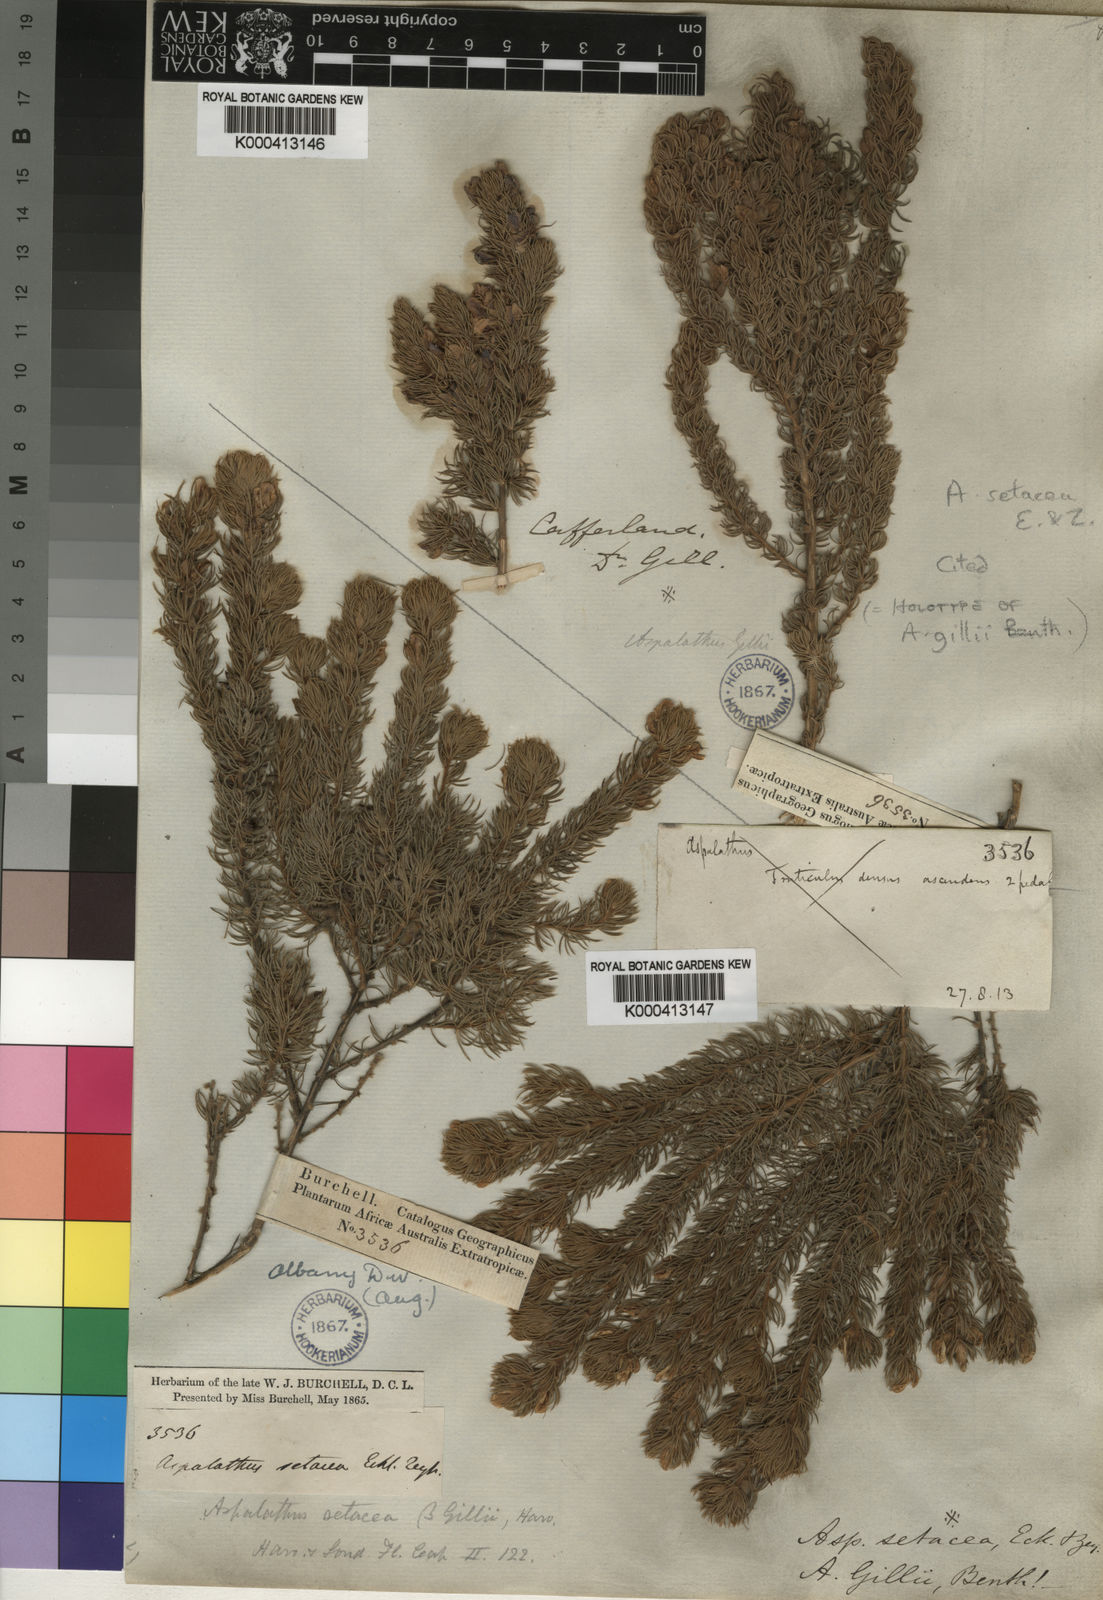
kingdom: Plantae
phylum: Tracheophyta
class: Magnoliopsida
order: Fabales
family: Fabaceae
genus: Aspalathus
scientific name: Aspalathus setacea
